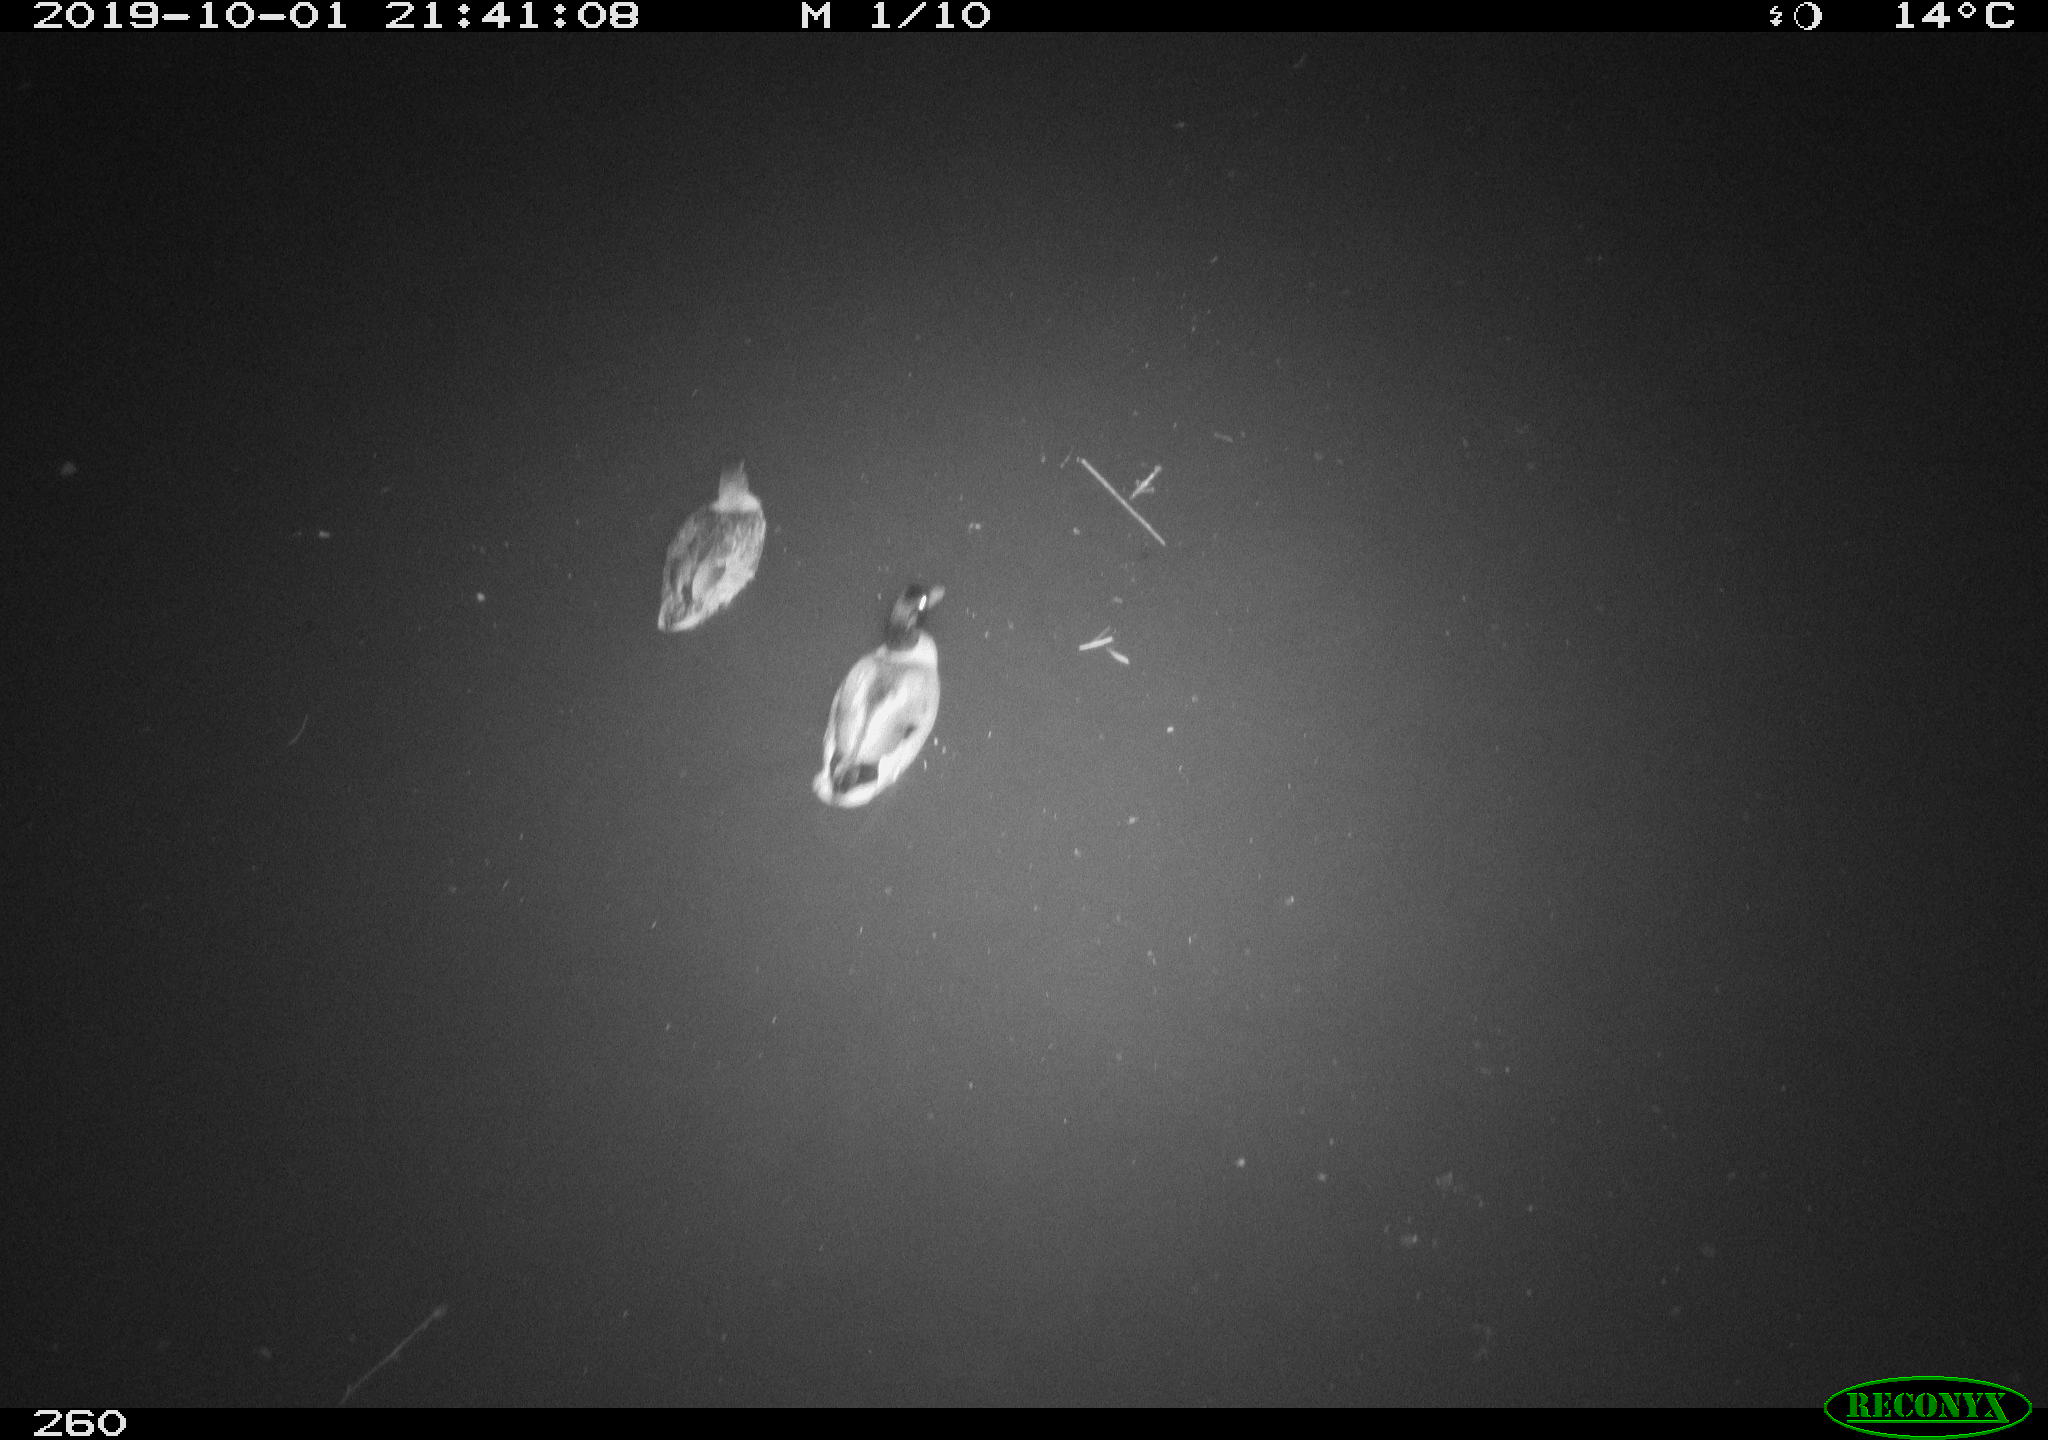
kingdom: Animalia
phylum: Chordata
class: Aves
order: Anseriformes
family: Anatidae
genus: Anas
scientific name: Anas platyrhynchos
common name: Mallard
